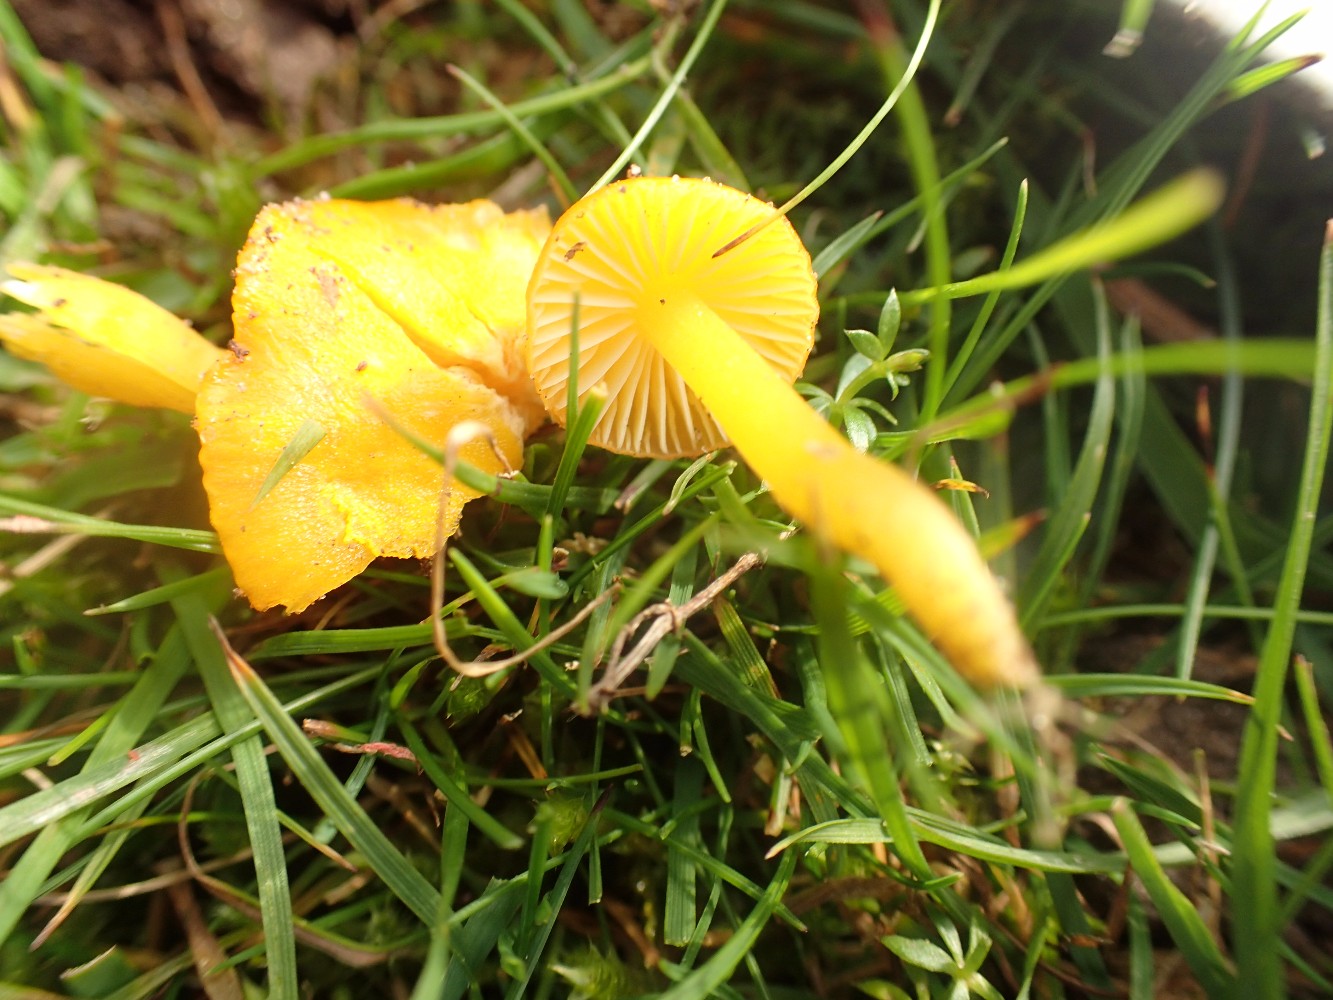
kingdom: Fungi
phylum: Basidiomycota
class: Agaricomycetes
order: Agaricales
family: Hygrophoraceae
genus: Hygrocybe
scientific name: Hygrocybe ceracea
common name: voksgul vokshat
